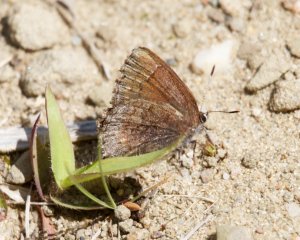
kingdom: Animalia
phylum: Arthropoda
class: Insecta
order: Lepidoptera
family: Lycaenidae
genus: Callophrys
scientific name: Callophrys polios
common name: Hoary Elfin
